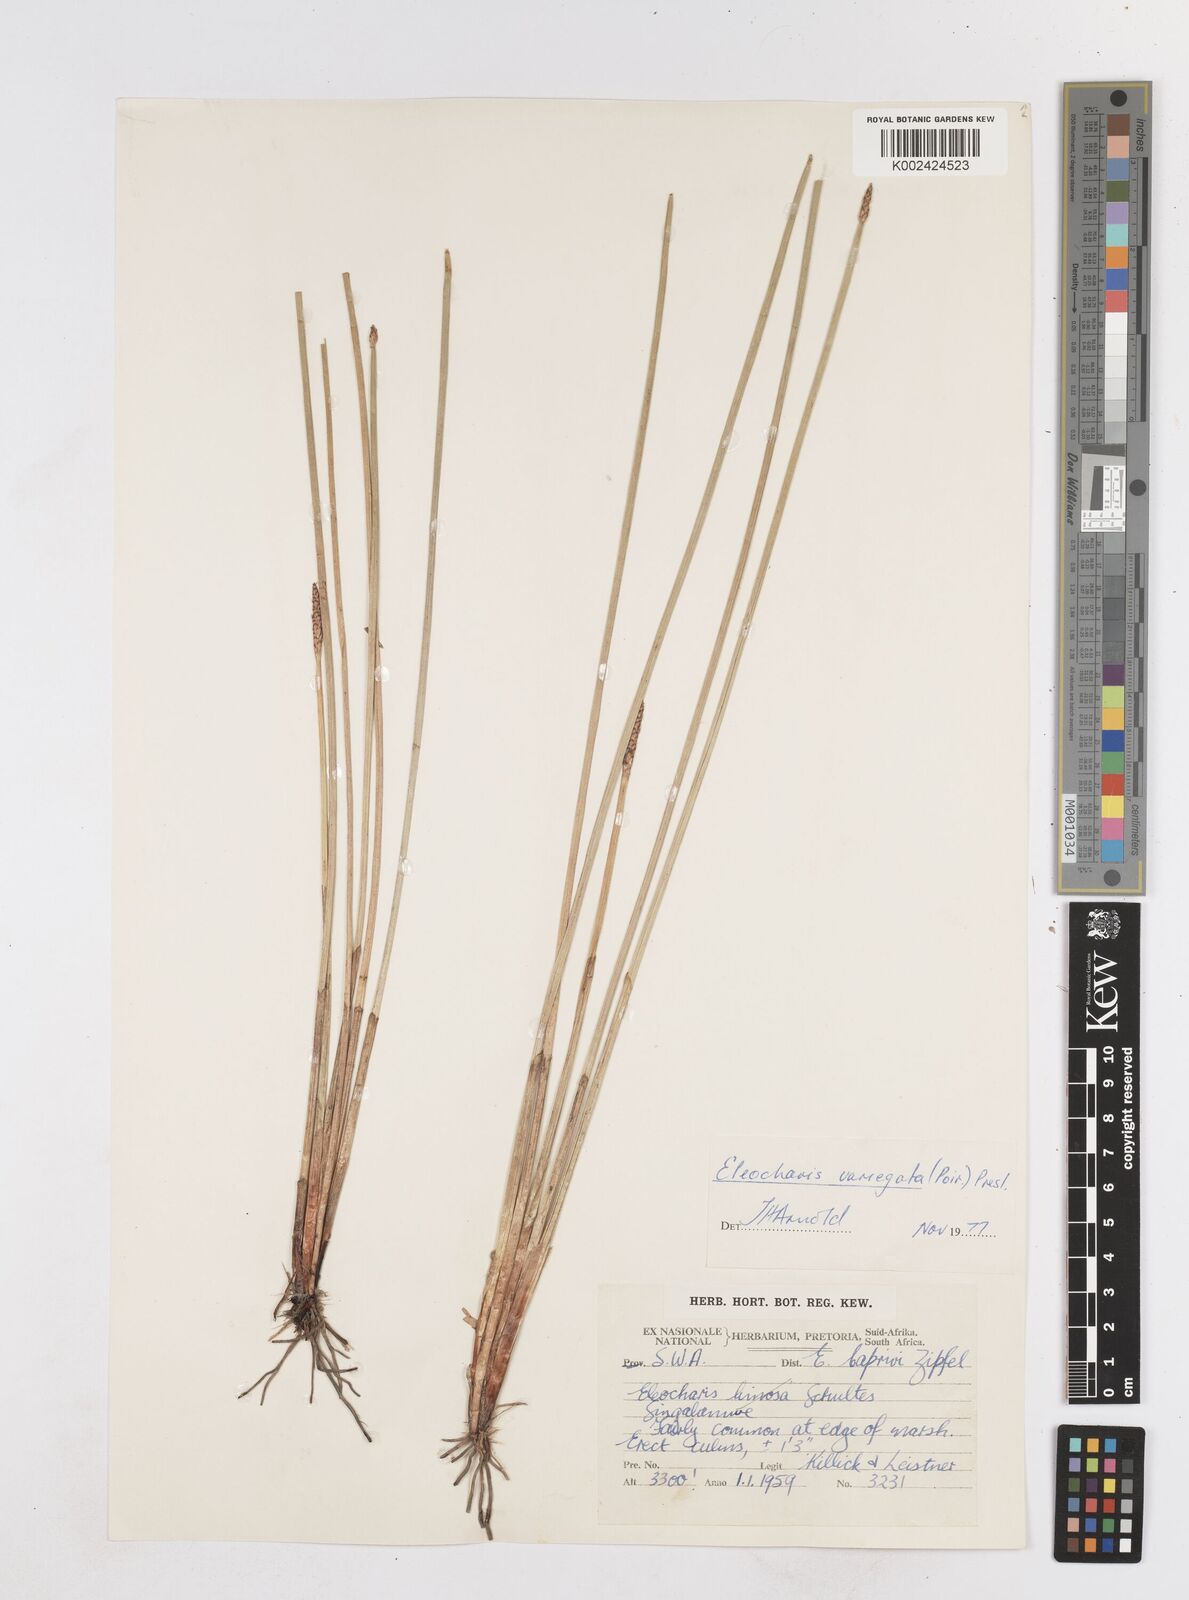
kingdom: Plantae
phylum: Tracheophyta
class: Liliopsida
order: Poales
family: Cyperaceae
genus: Eleocharis
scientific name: Eleocharis variegata
